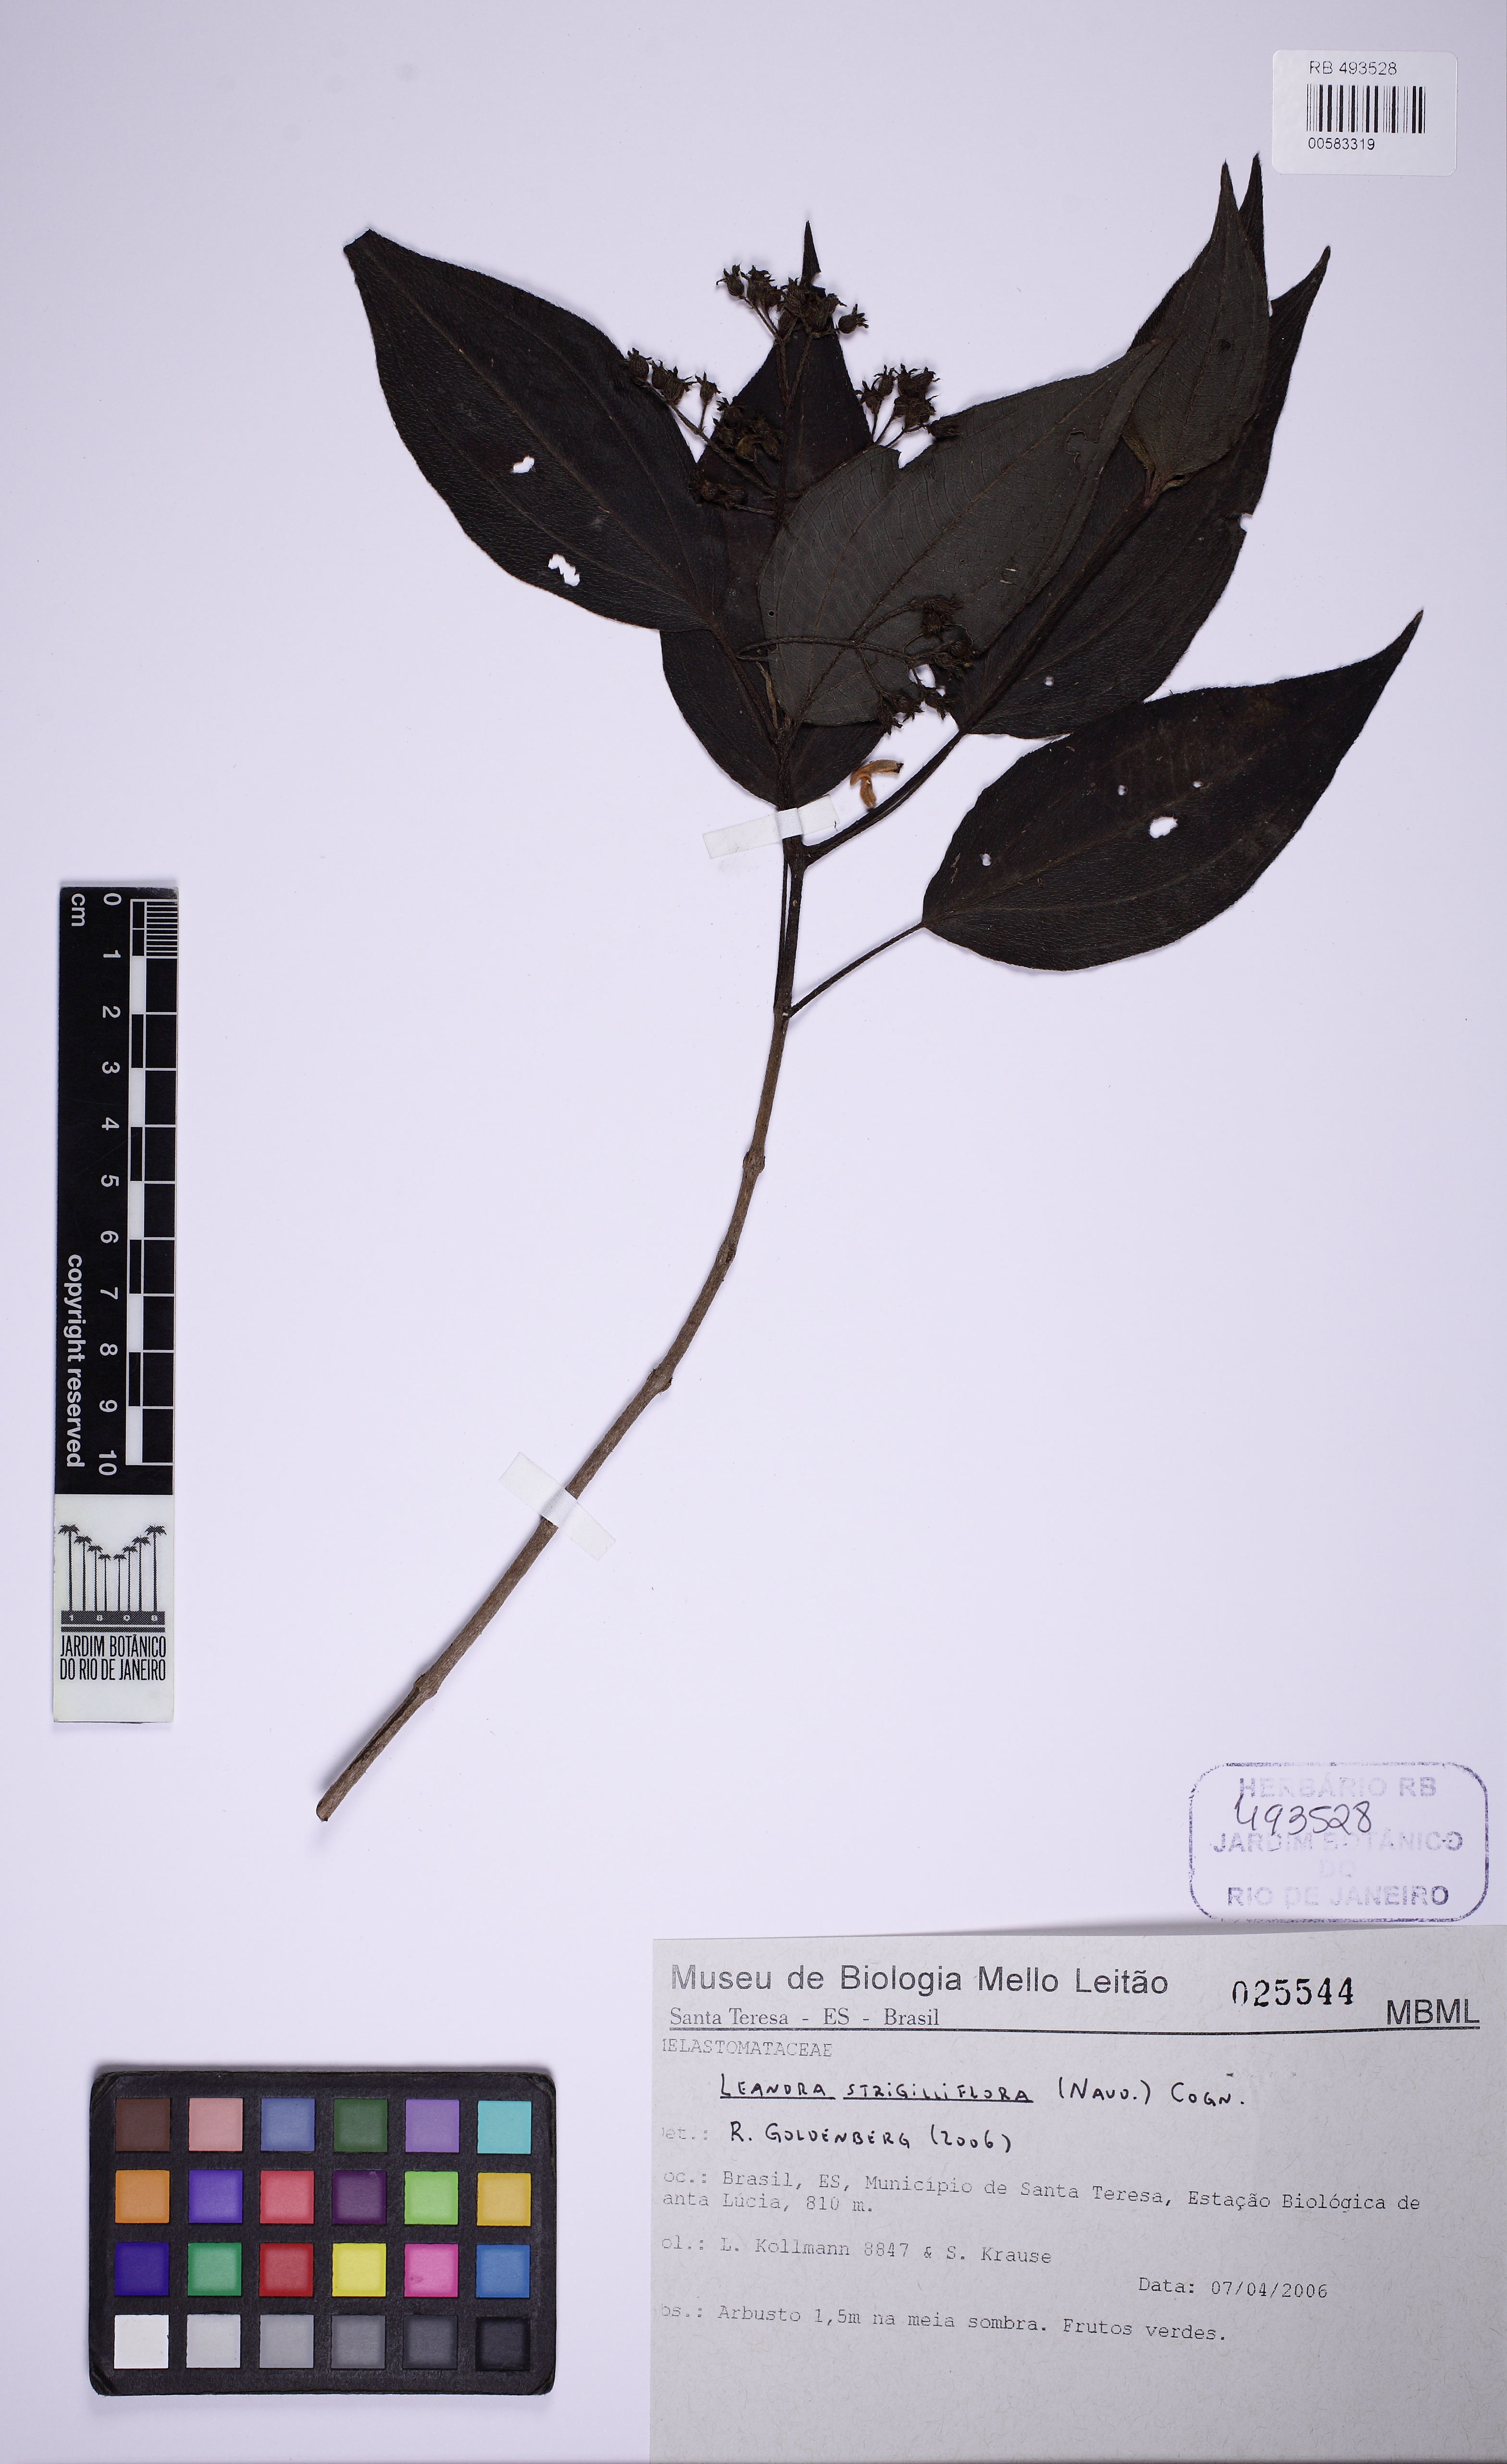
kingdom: Plantae
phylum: Tracheophyta
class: Magnoliopsida
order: Myrtales
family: Melastomataceae
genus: Miconia
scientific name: Miconia strigilliflora
